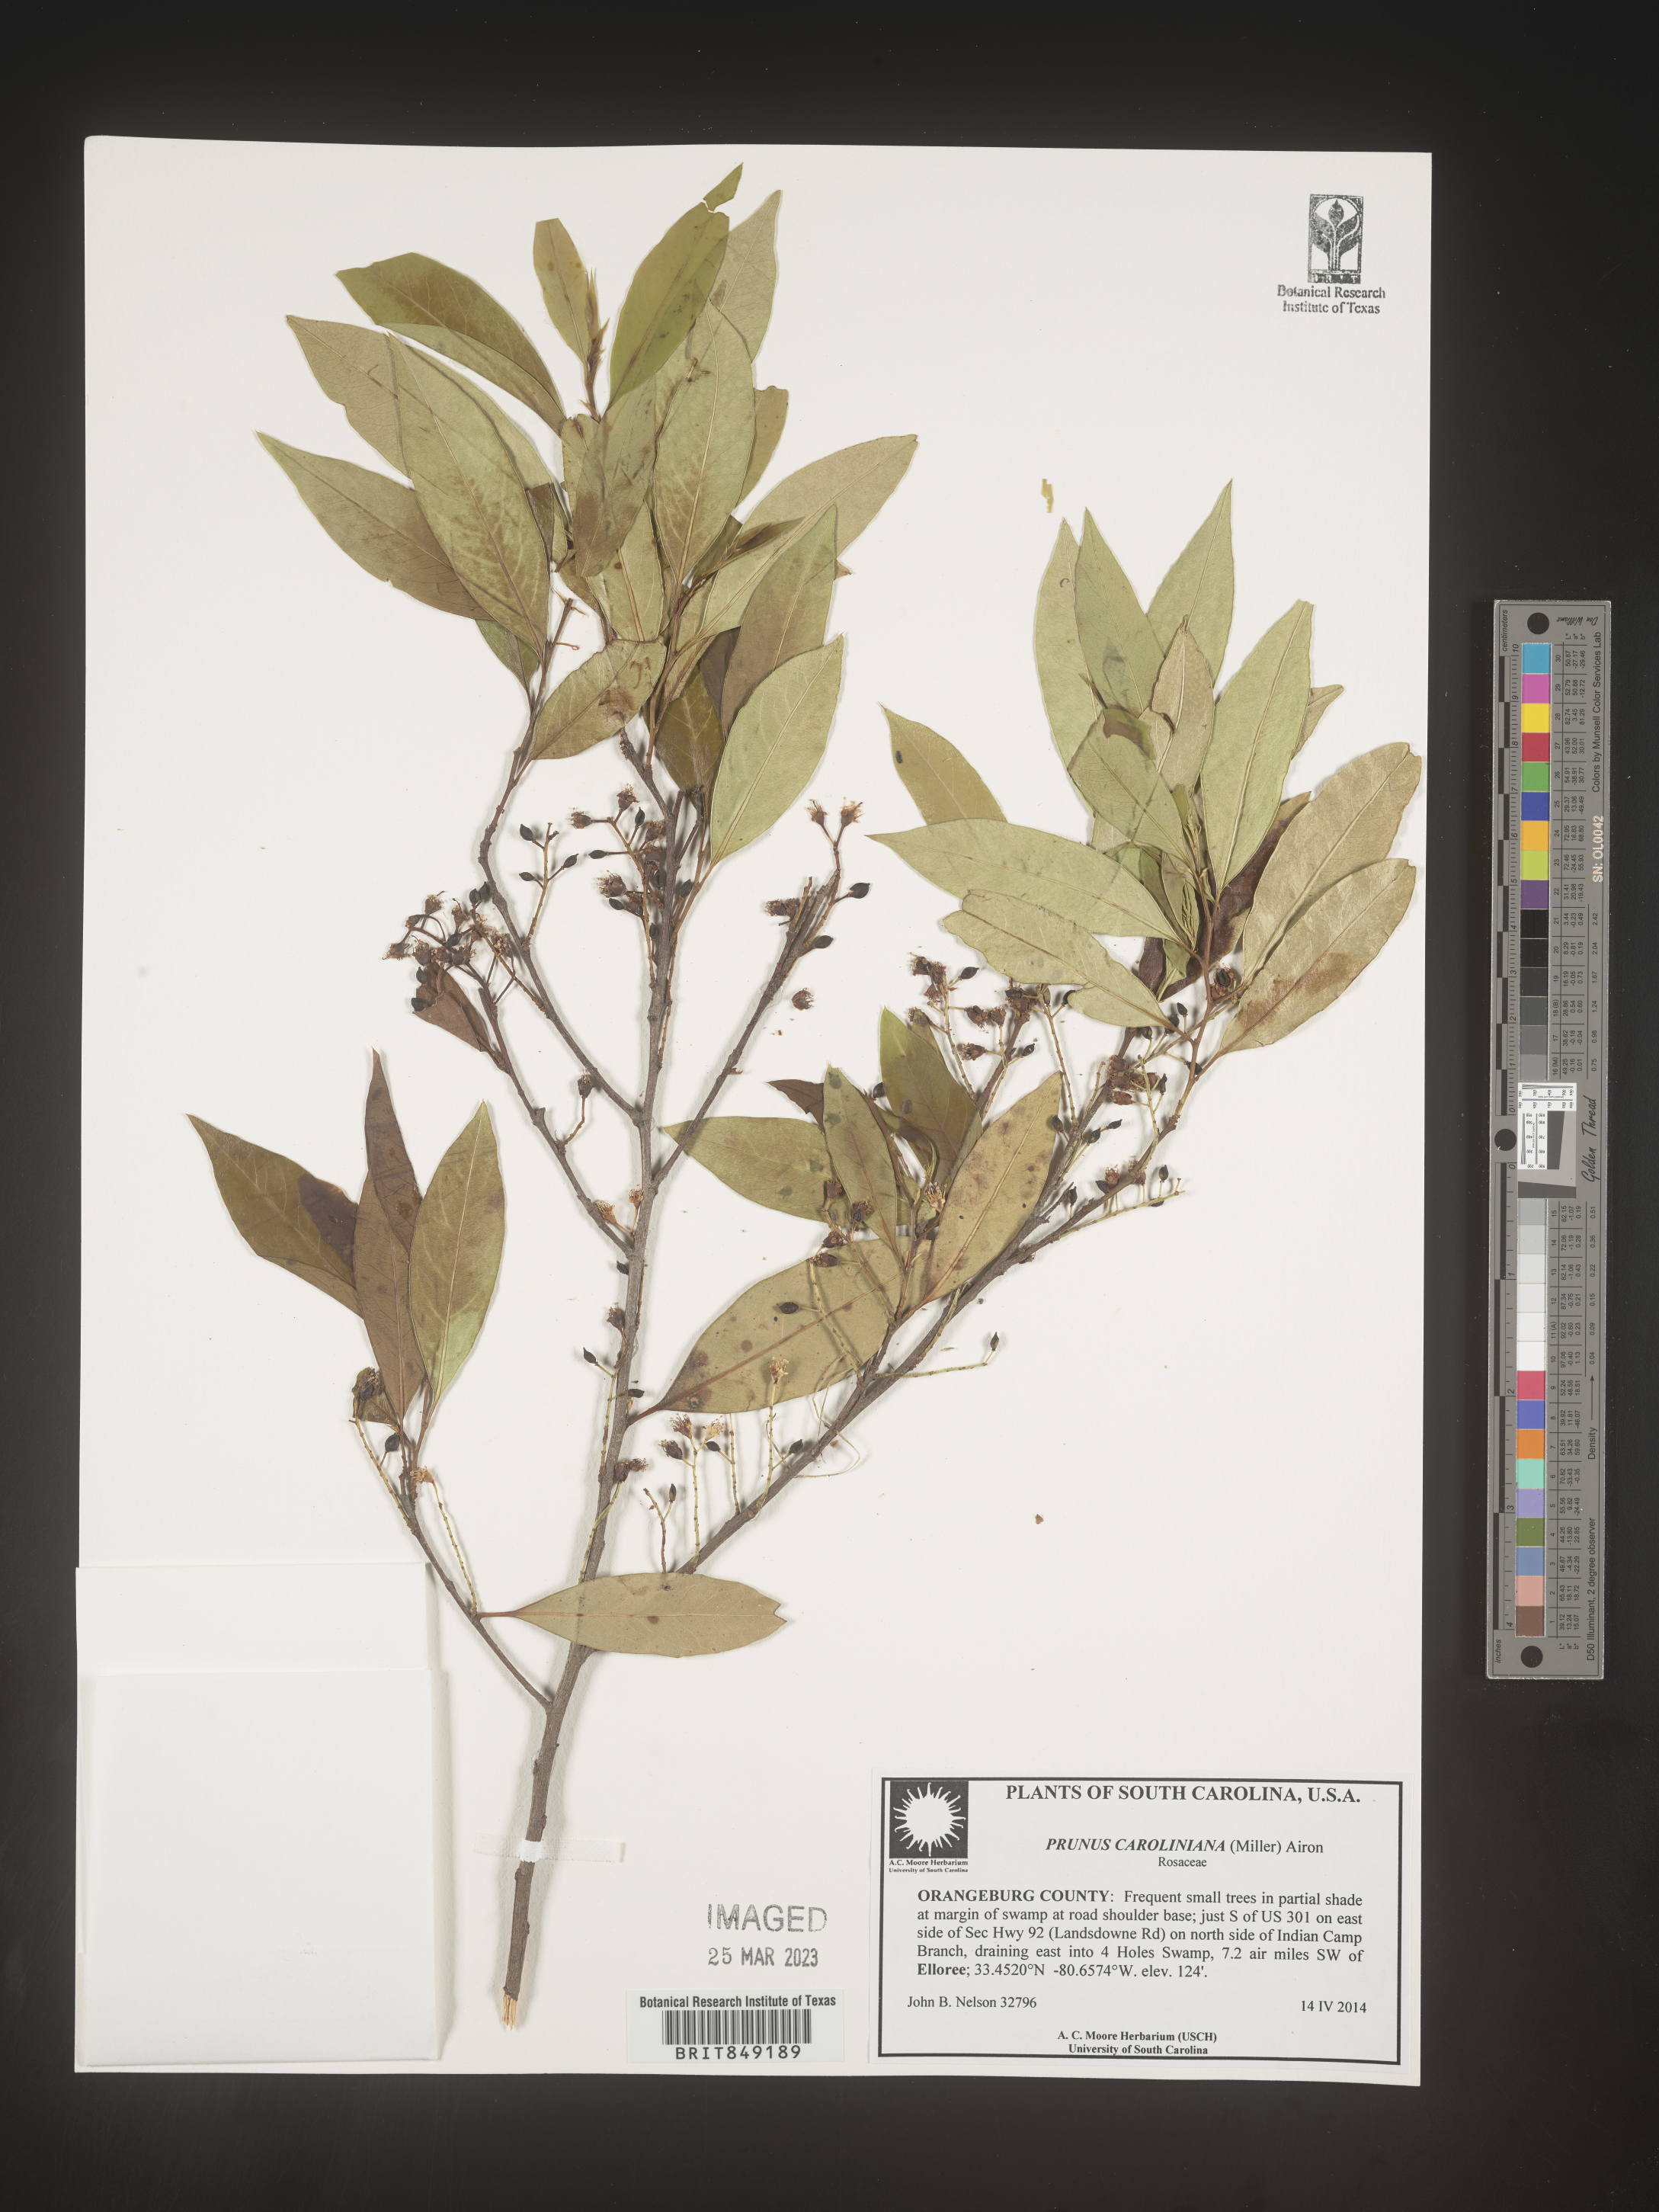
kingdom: Plantae
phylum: Tracheophyta
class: Magnoliopsida
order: Rosales
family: Rosaceae
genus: Prunus
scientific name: Prunus
